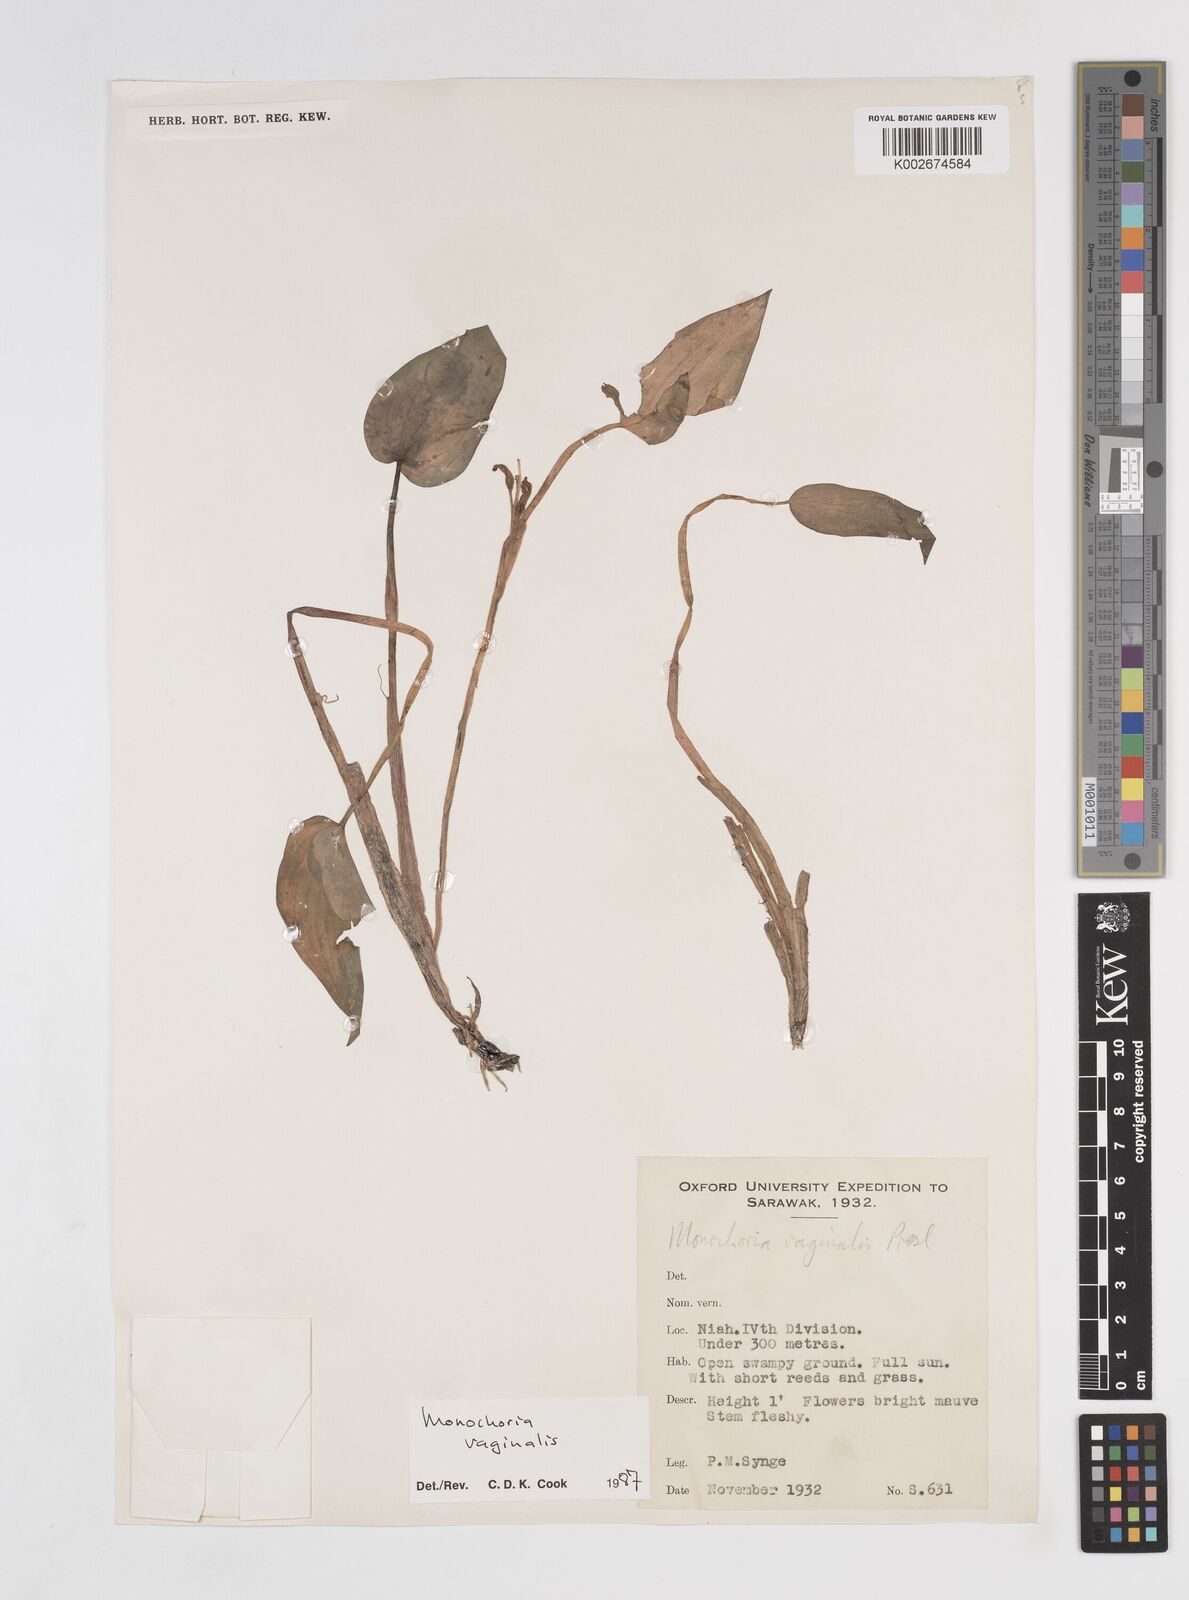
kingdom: Plantae
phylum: Tracheophyta
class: Liliopsida
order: Commelinales
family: Pontederiaceae
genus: Pontederia
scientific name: Pontederia vaginalis
